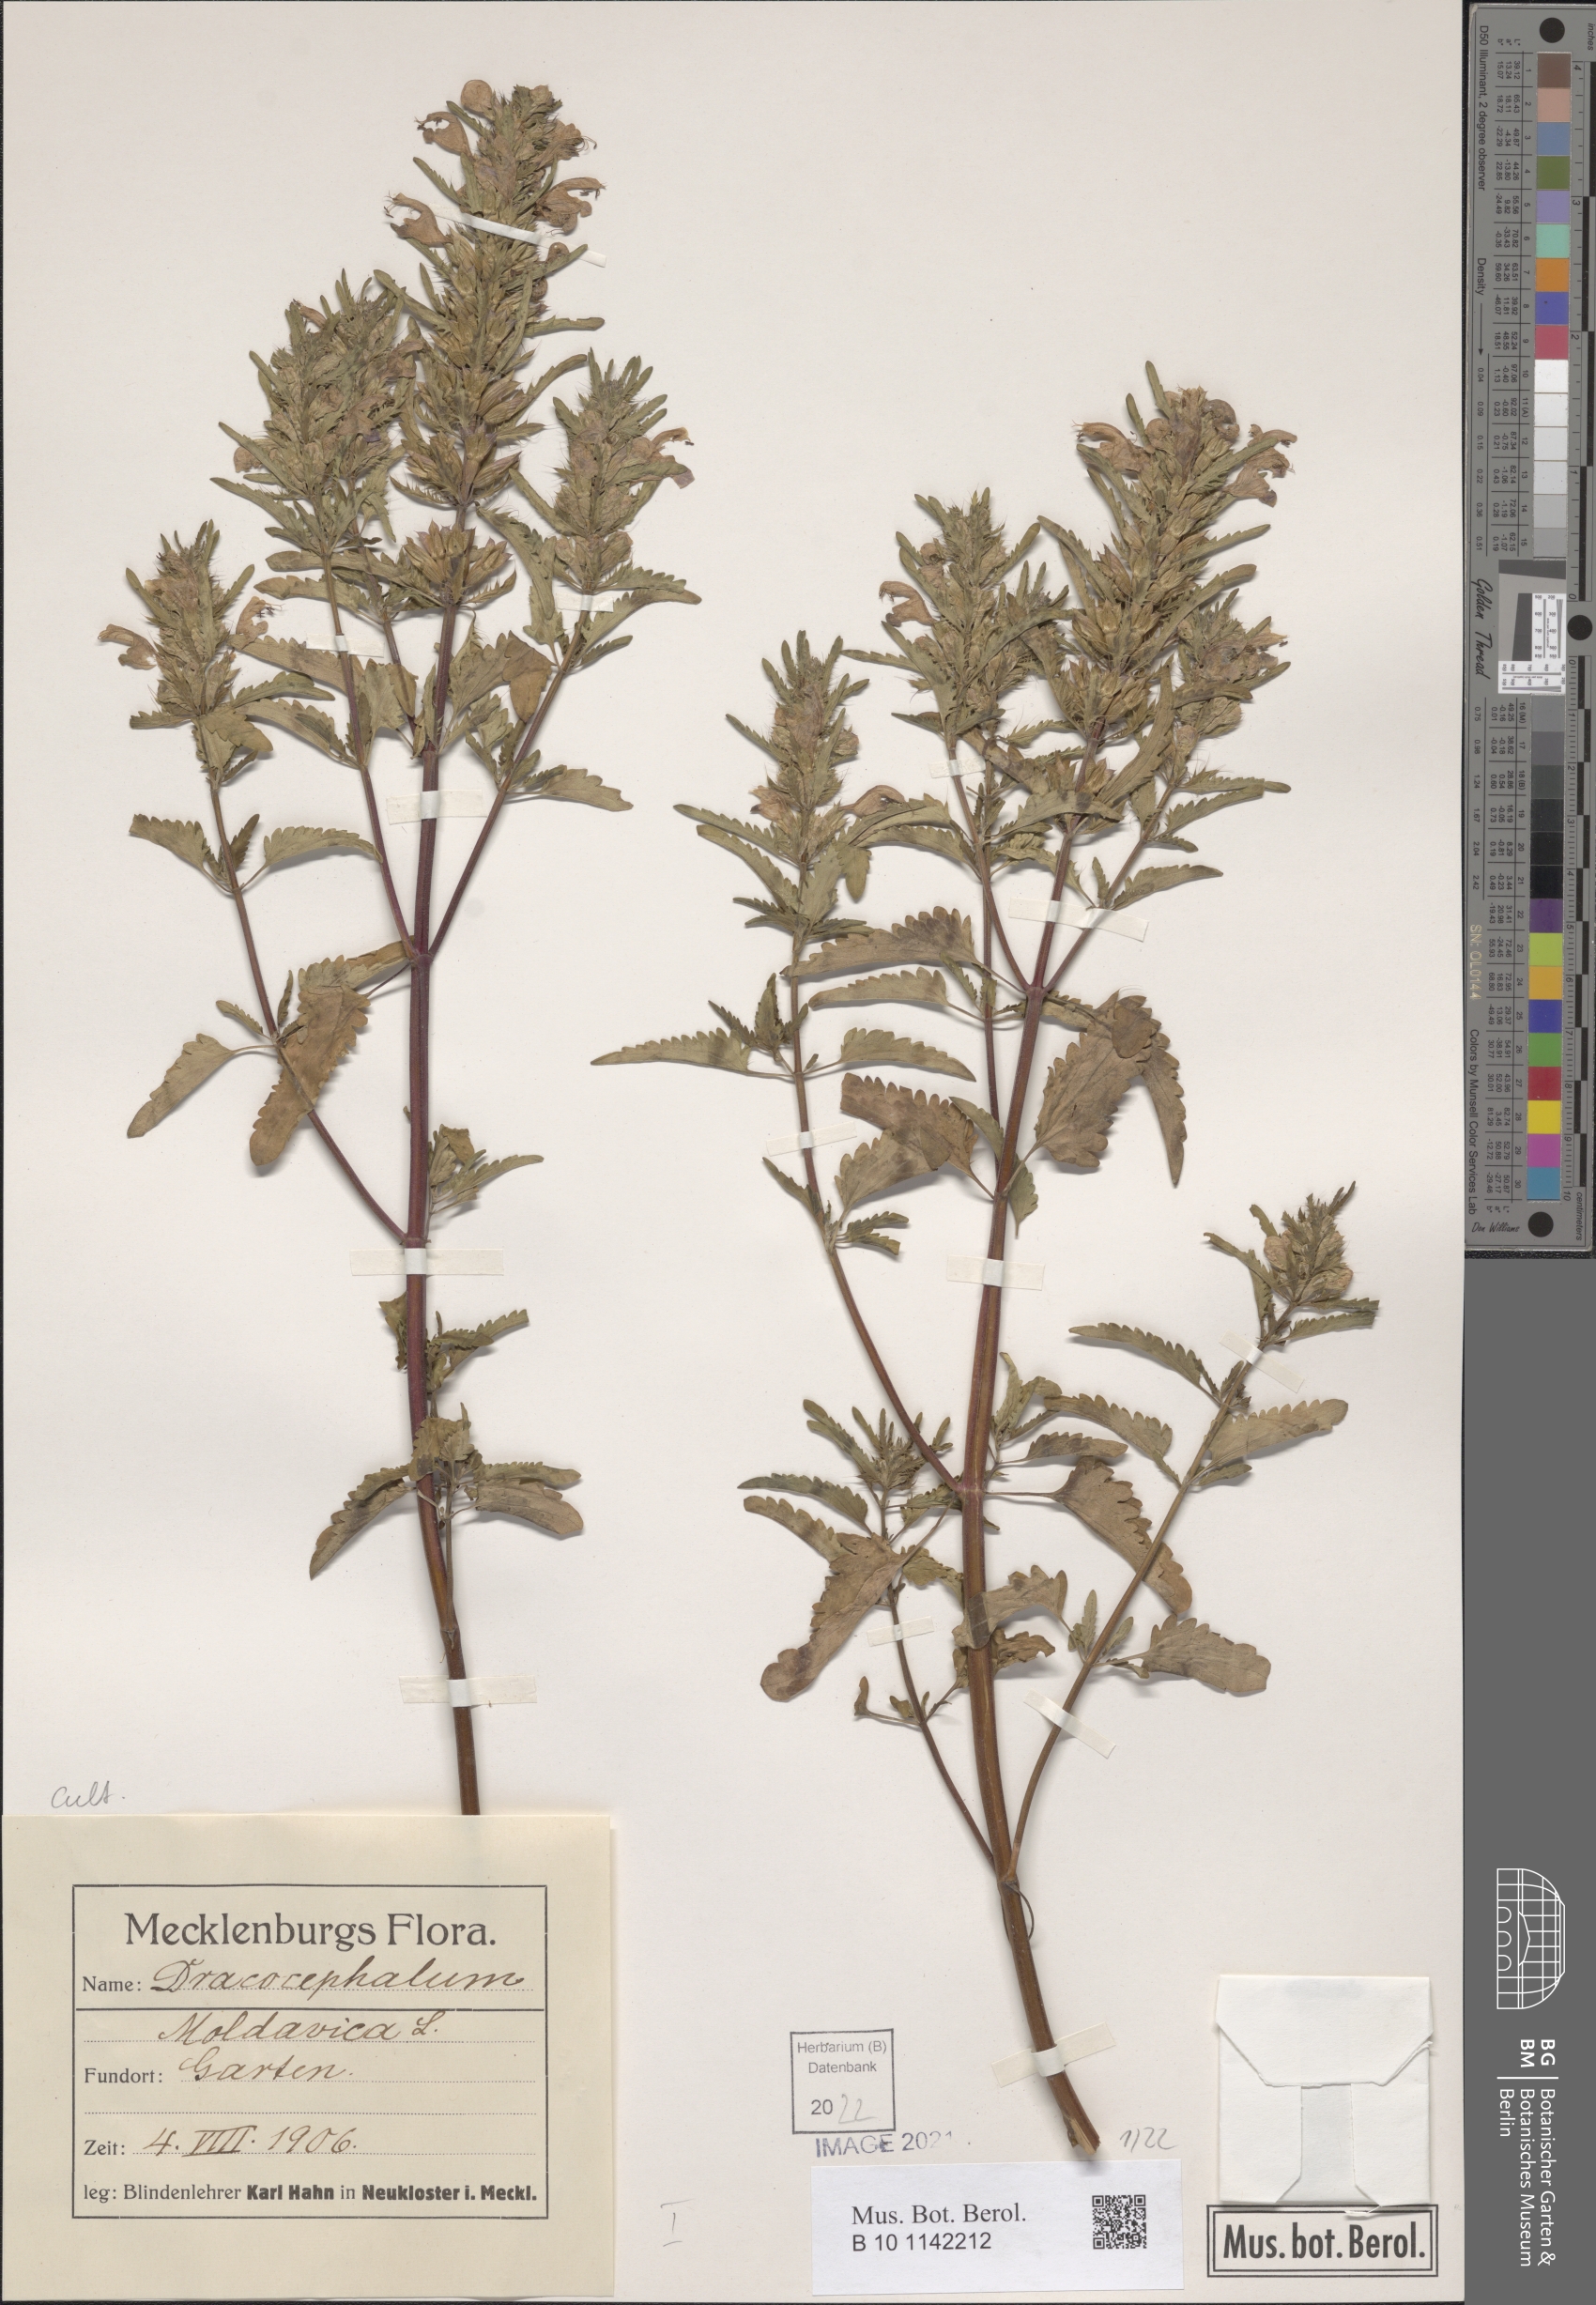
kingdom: Plantae
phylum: Tracheophyta
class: Magnoliopsida
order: Lamiales
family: Lamiaceae
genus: Dracocephalum
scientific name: Dracocephalum moldavica
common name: Moldavian dragonhead
